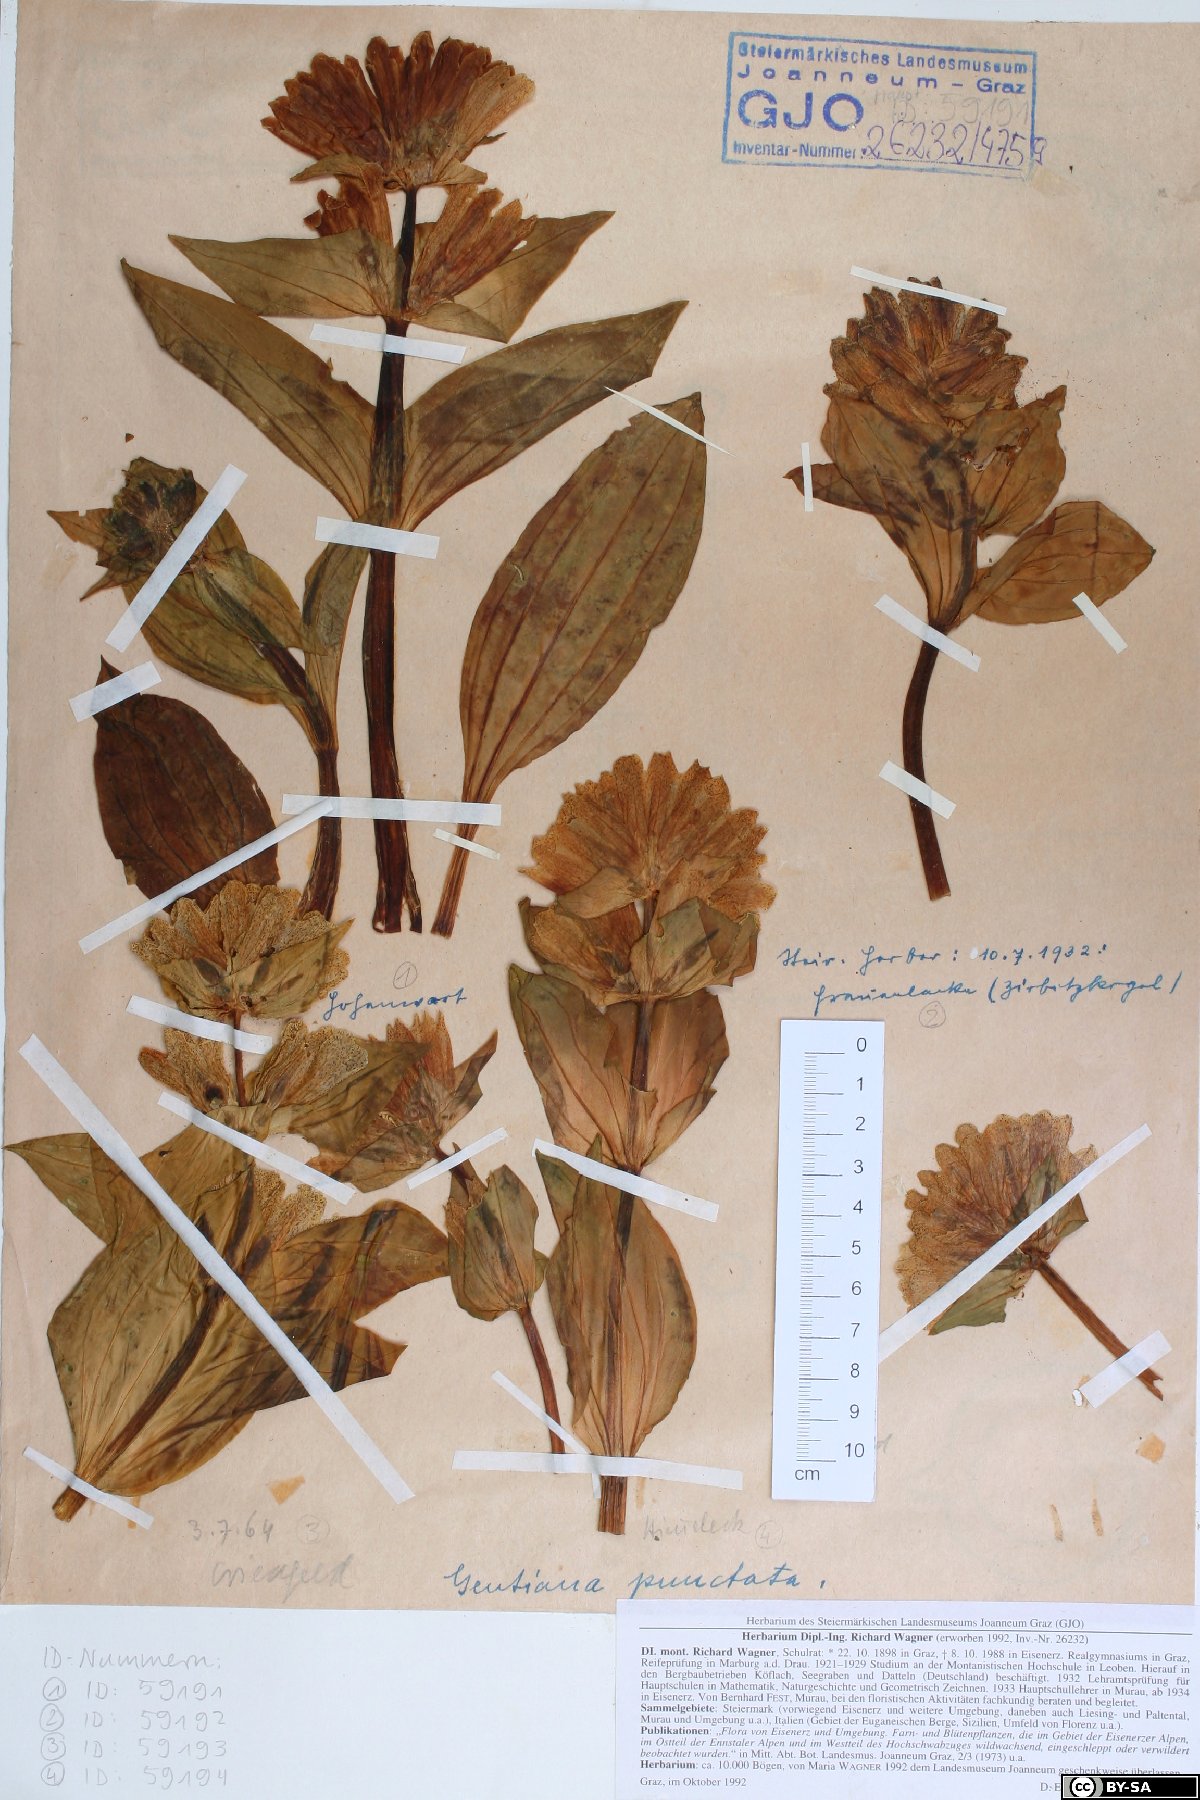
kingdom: Plantae
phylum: Tracheophyta
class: Magnoliopsida
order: Gentianales
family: Gentianaceae
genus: Gentiana
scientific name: Gentiana punctata
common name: Spotted gentian
